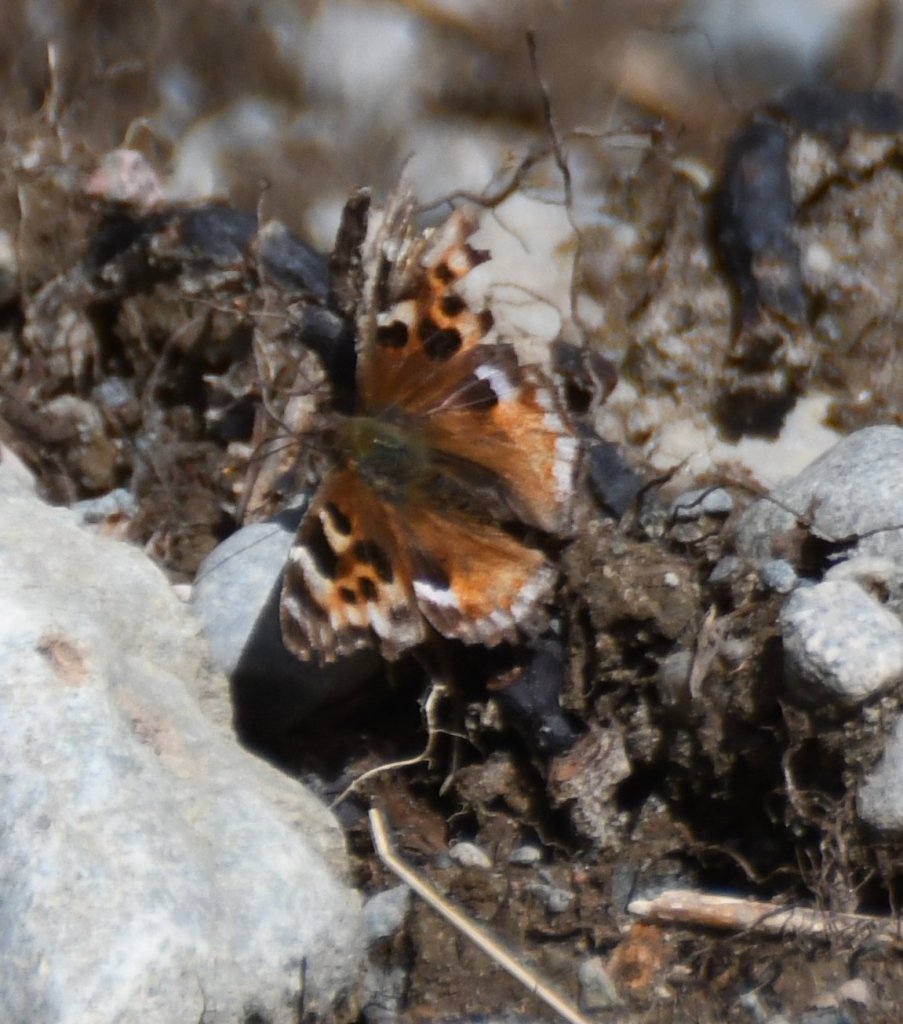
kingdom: Animalia
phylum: Arthropoda
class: Insecta
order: Lepidoptera
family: Nymphalidae
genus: Polygonia
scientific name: Polygonia vaualbum
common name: Compton Tortoiseshell
